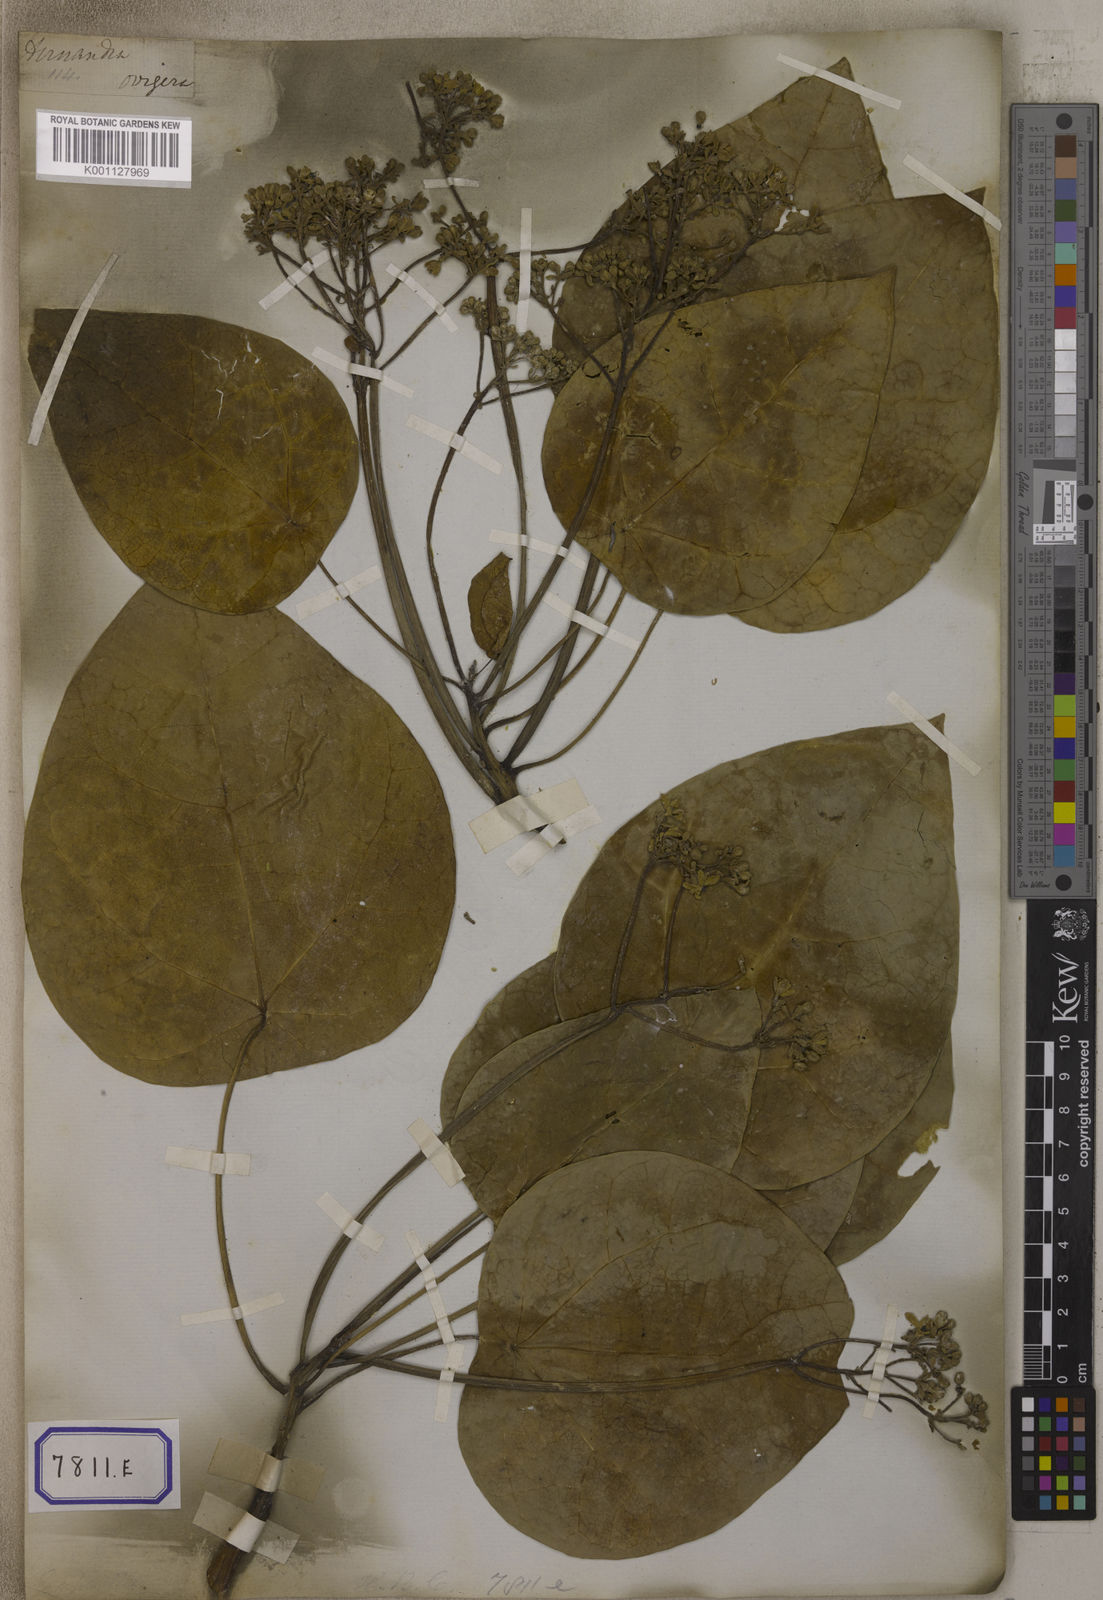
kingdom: Plantae
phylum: Tracheophyta
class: Magnoliopsida
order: Malpighiales
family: Euphorbiaceae
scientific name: Euphorbiaceae
